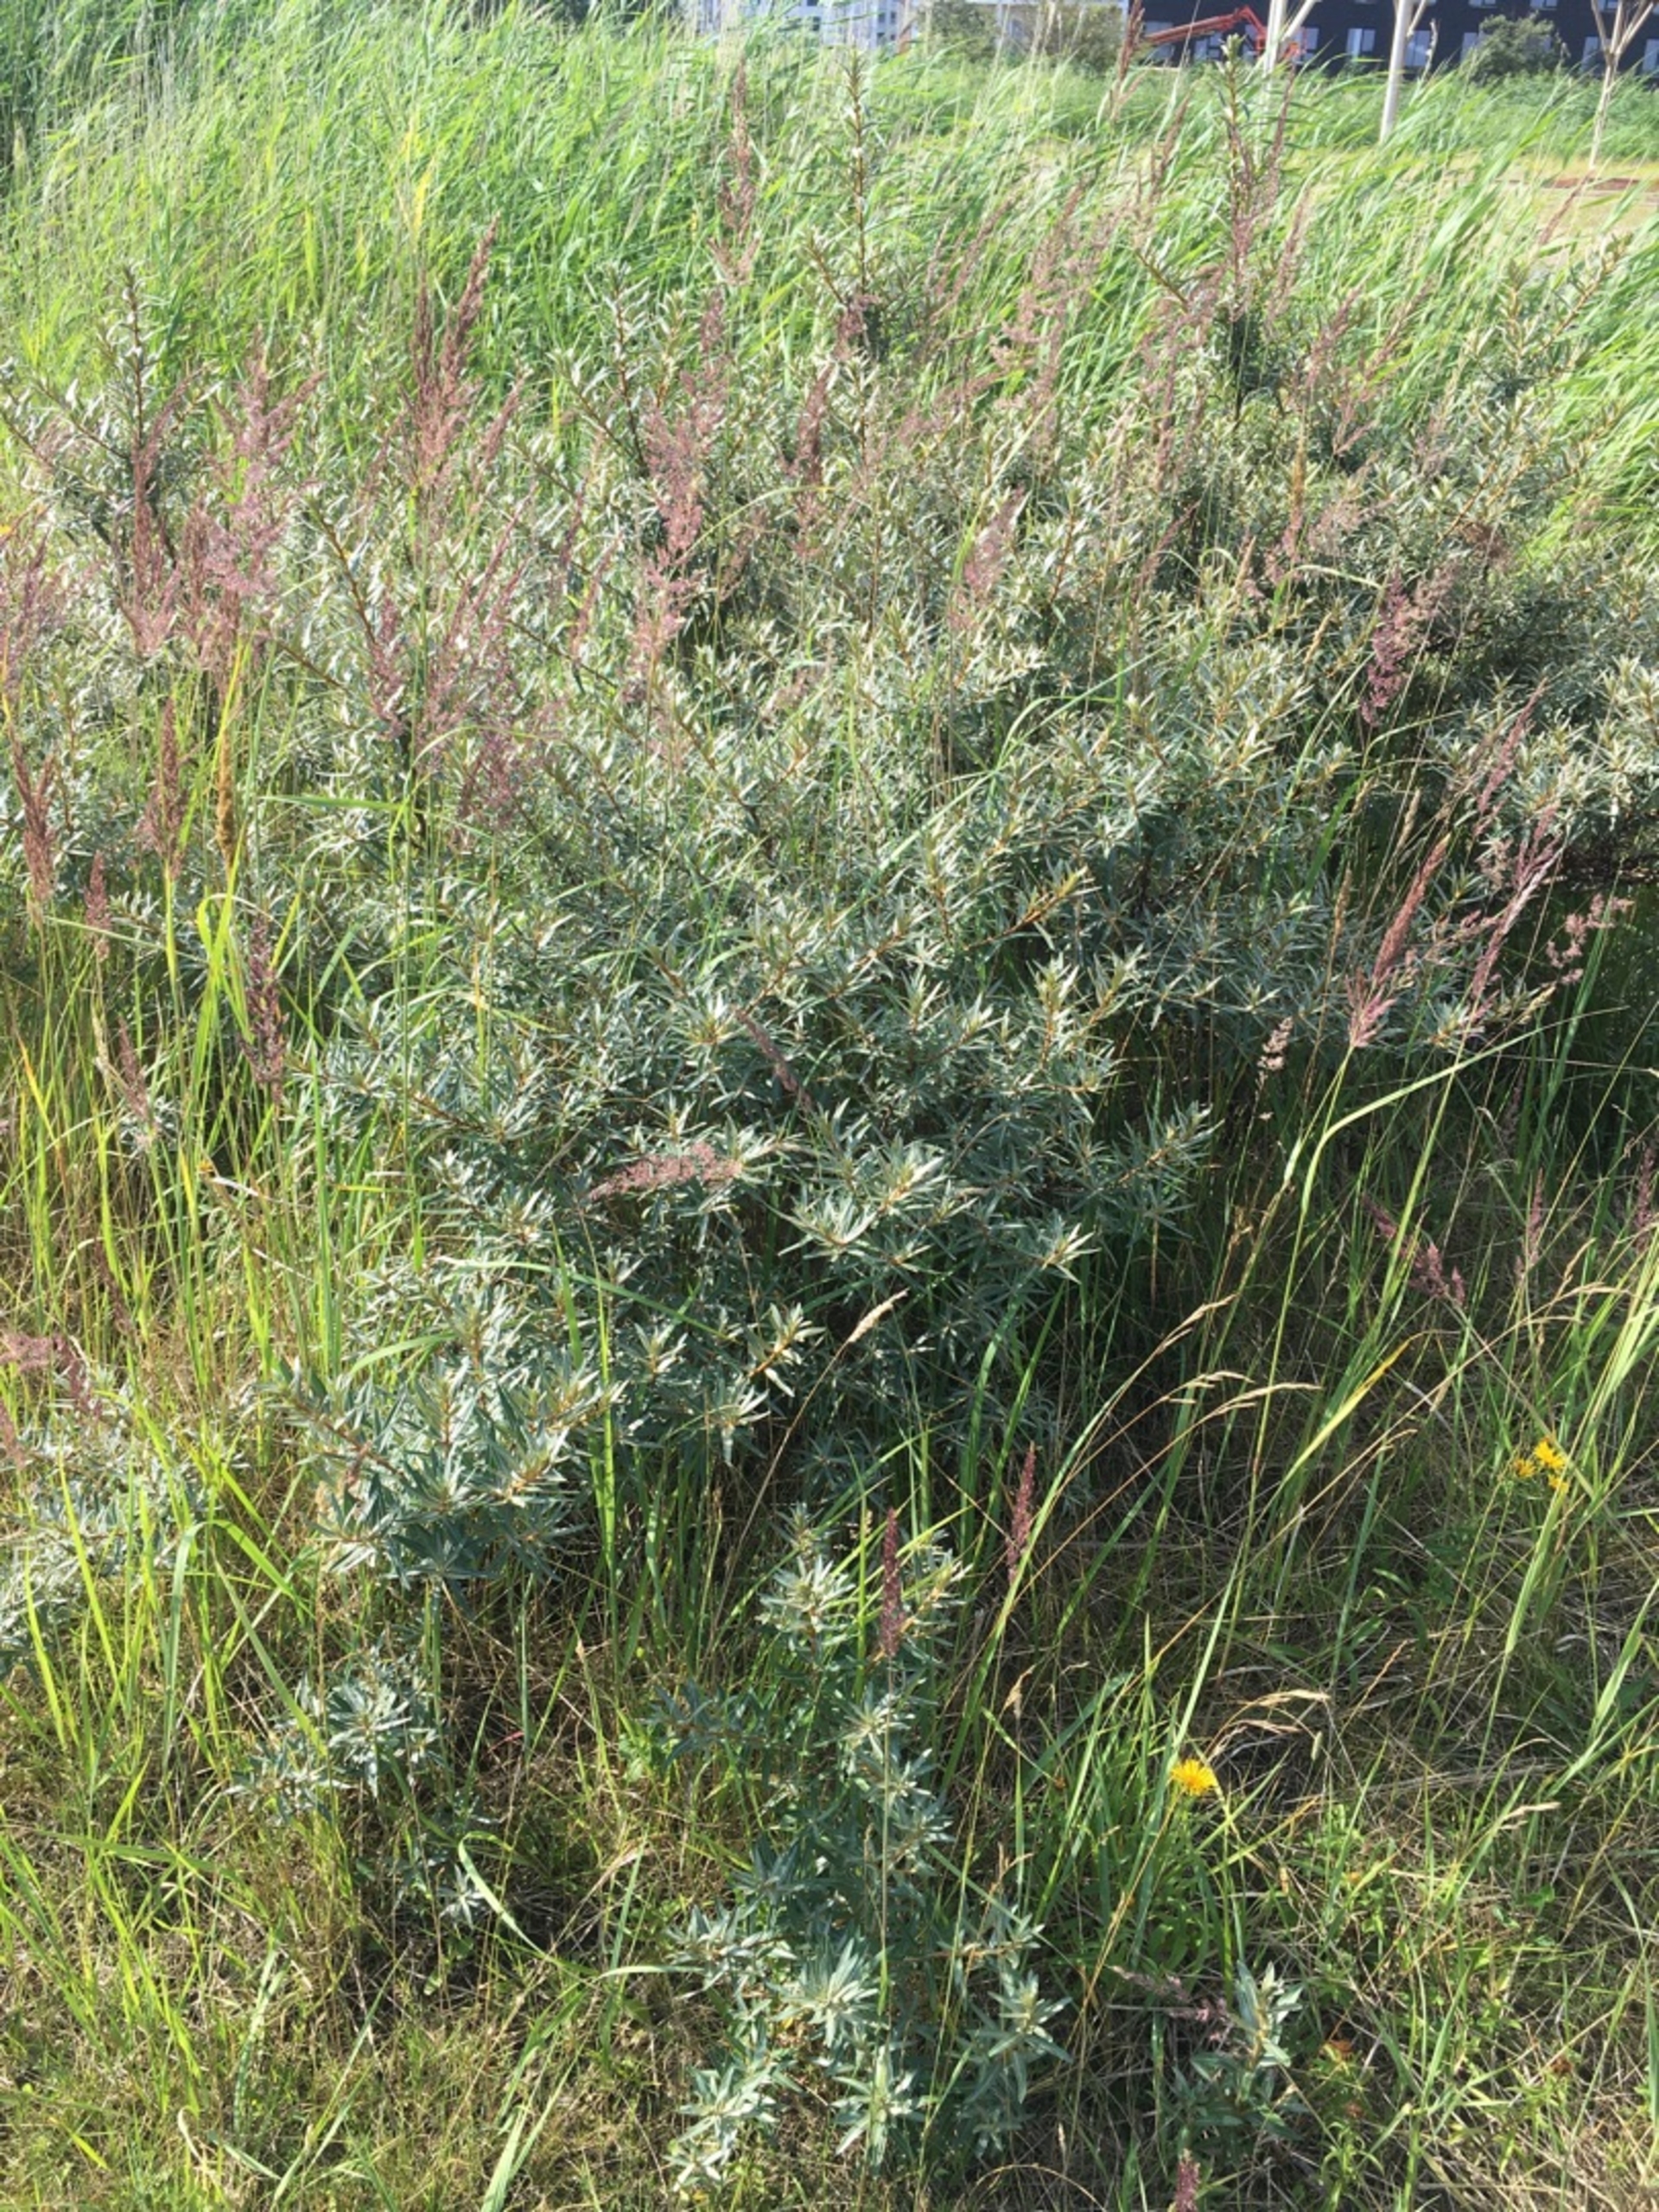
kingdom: Plantae
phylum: Tracheophyta
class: Magnoliopsida
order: Rosales
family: Elaeagnaceae
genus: Hippophae
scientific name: Hippophae rhamnoides
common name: Havtorn
